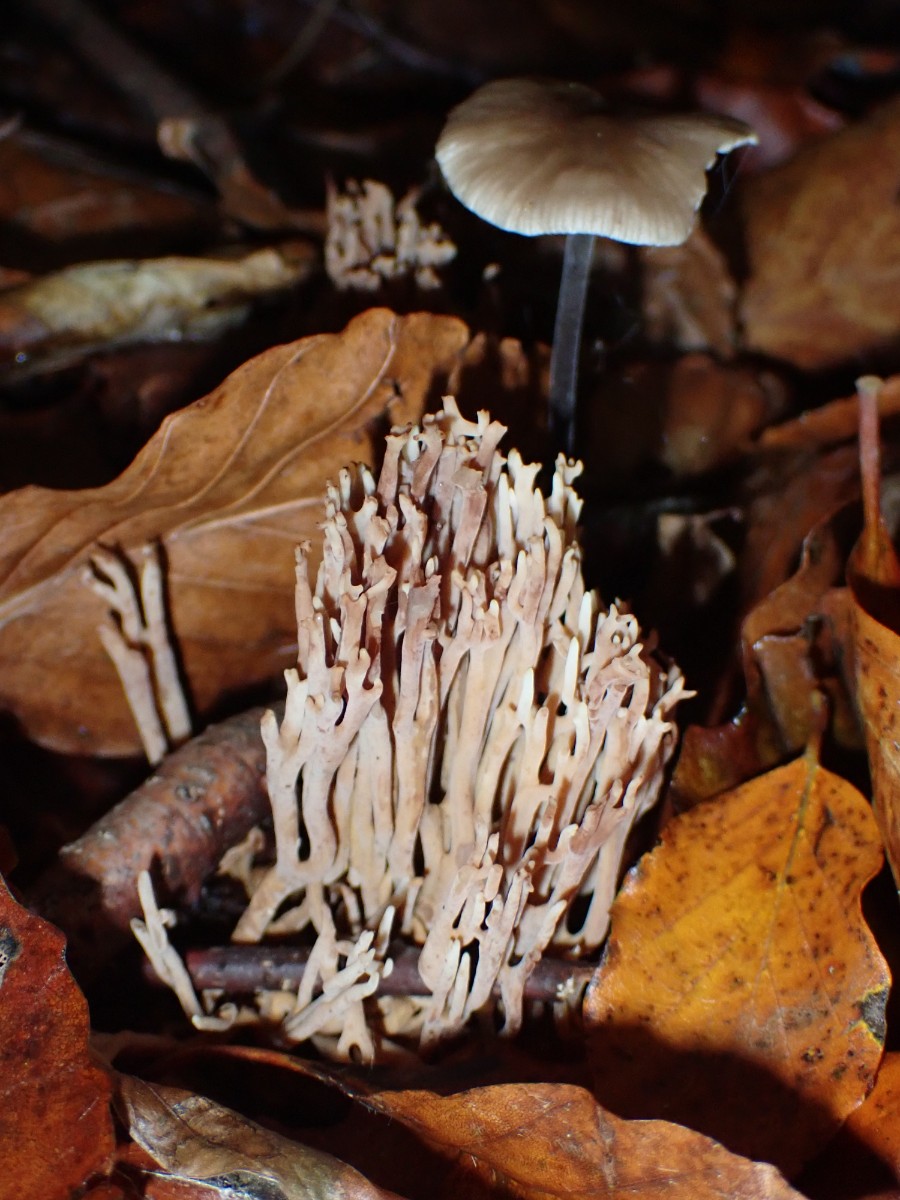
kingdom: Fungi
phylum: Basidiomycota
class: Agaricomycetes
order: Gomphales
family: Gomphaceae
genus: Ramaria
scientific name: Ramaria stricta
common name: rank koralsvamp
